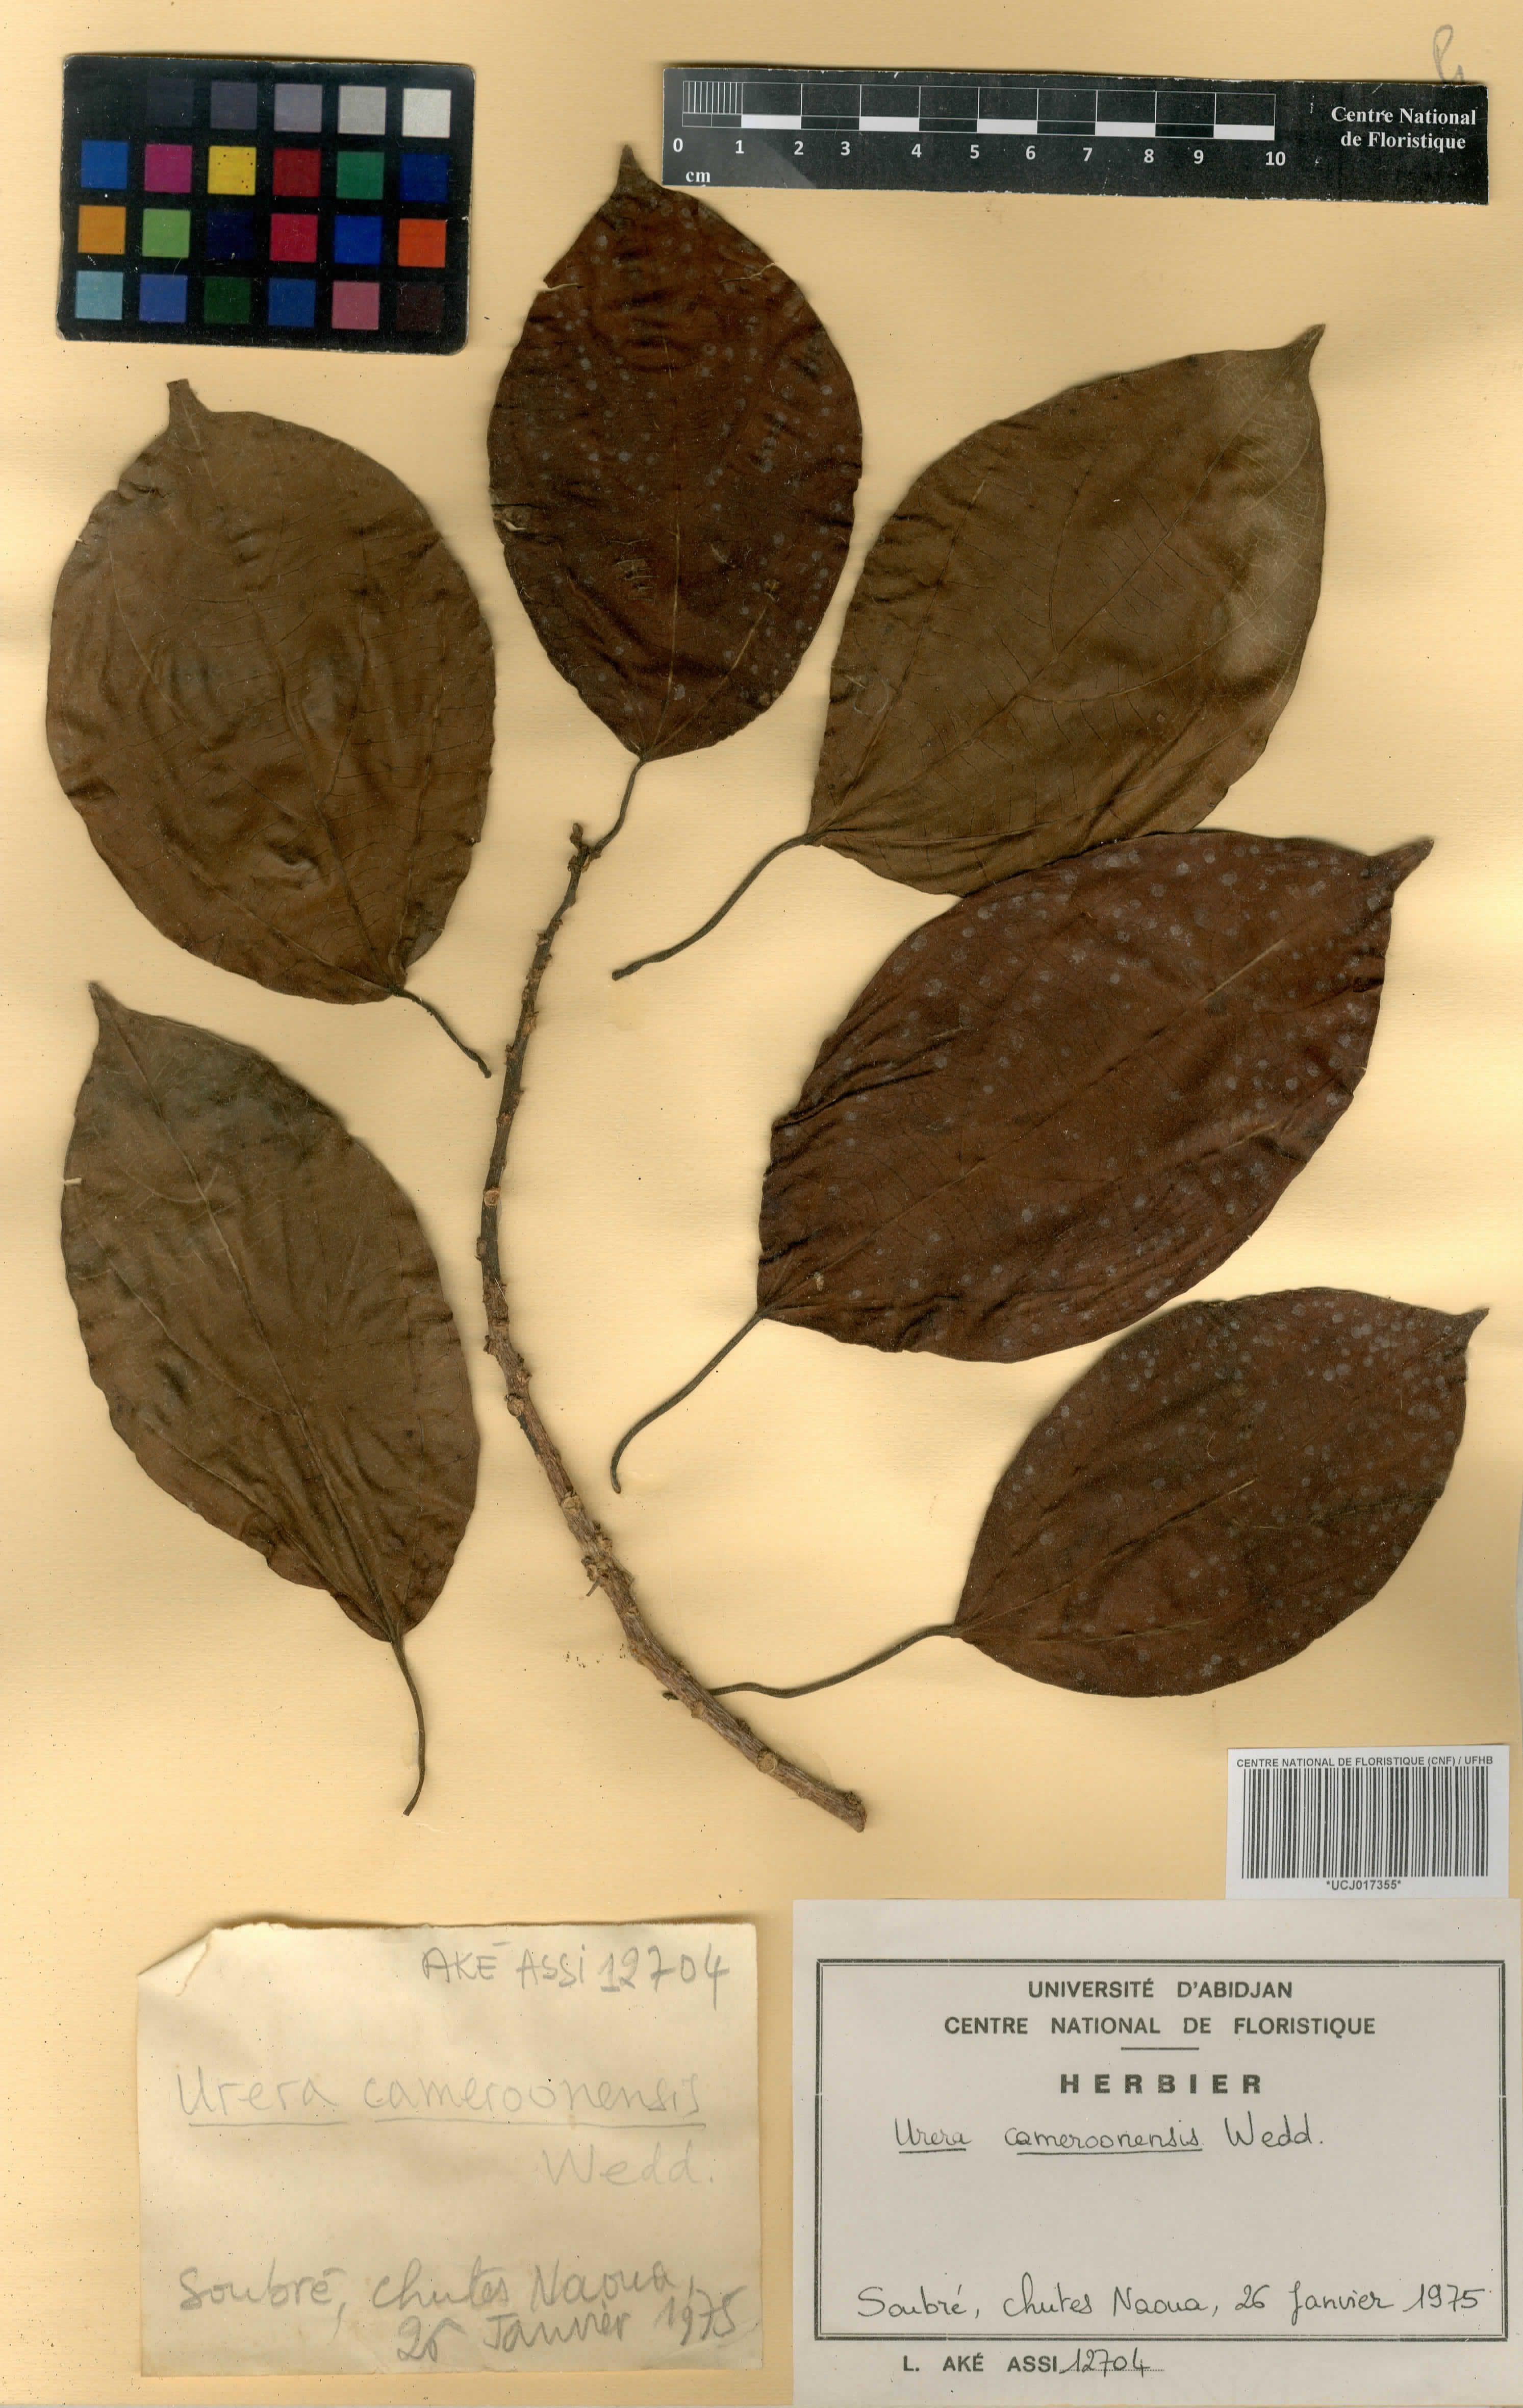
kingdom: Plantae
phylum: Tracheophyta
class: Magnoliopsida
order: Rosales
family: Urticaceae
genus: Scepocarpus
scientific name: Scepocarpus trinervis
